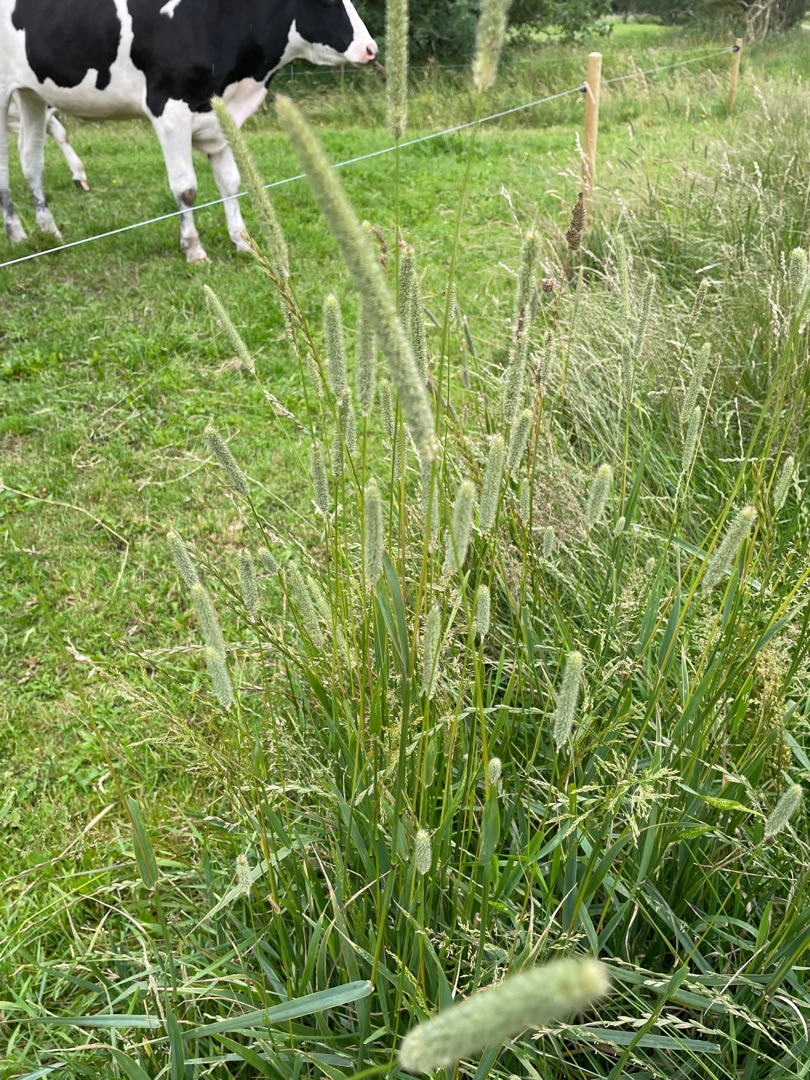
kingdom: Plantae
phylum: Tracheophyta
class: Liliopsida
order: Poales
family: Poaceae
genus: Phleum
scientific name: Phleum pratense
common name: Eng-rottehale
